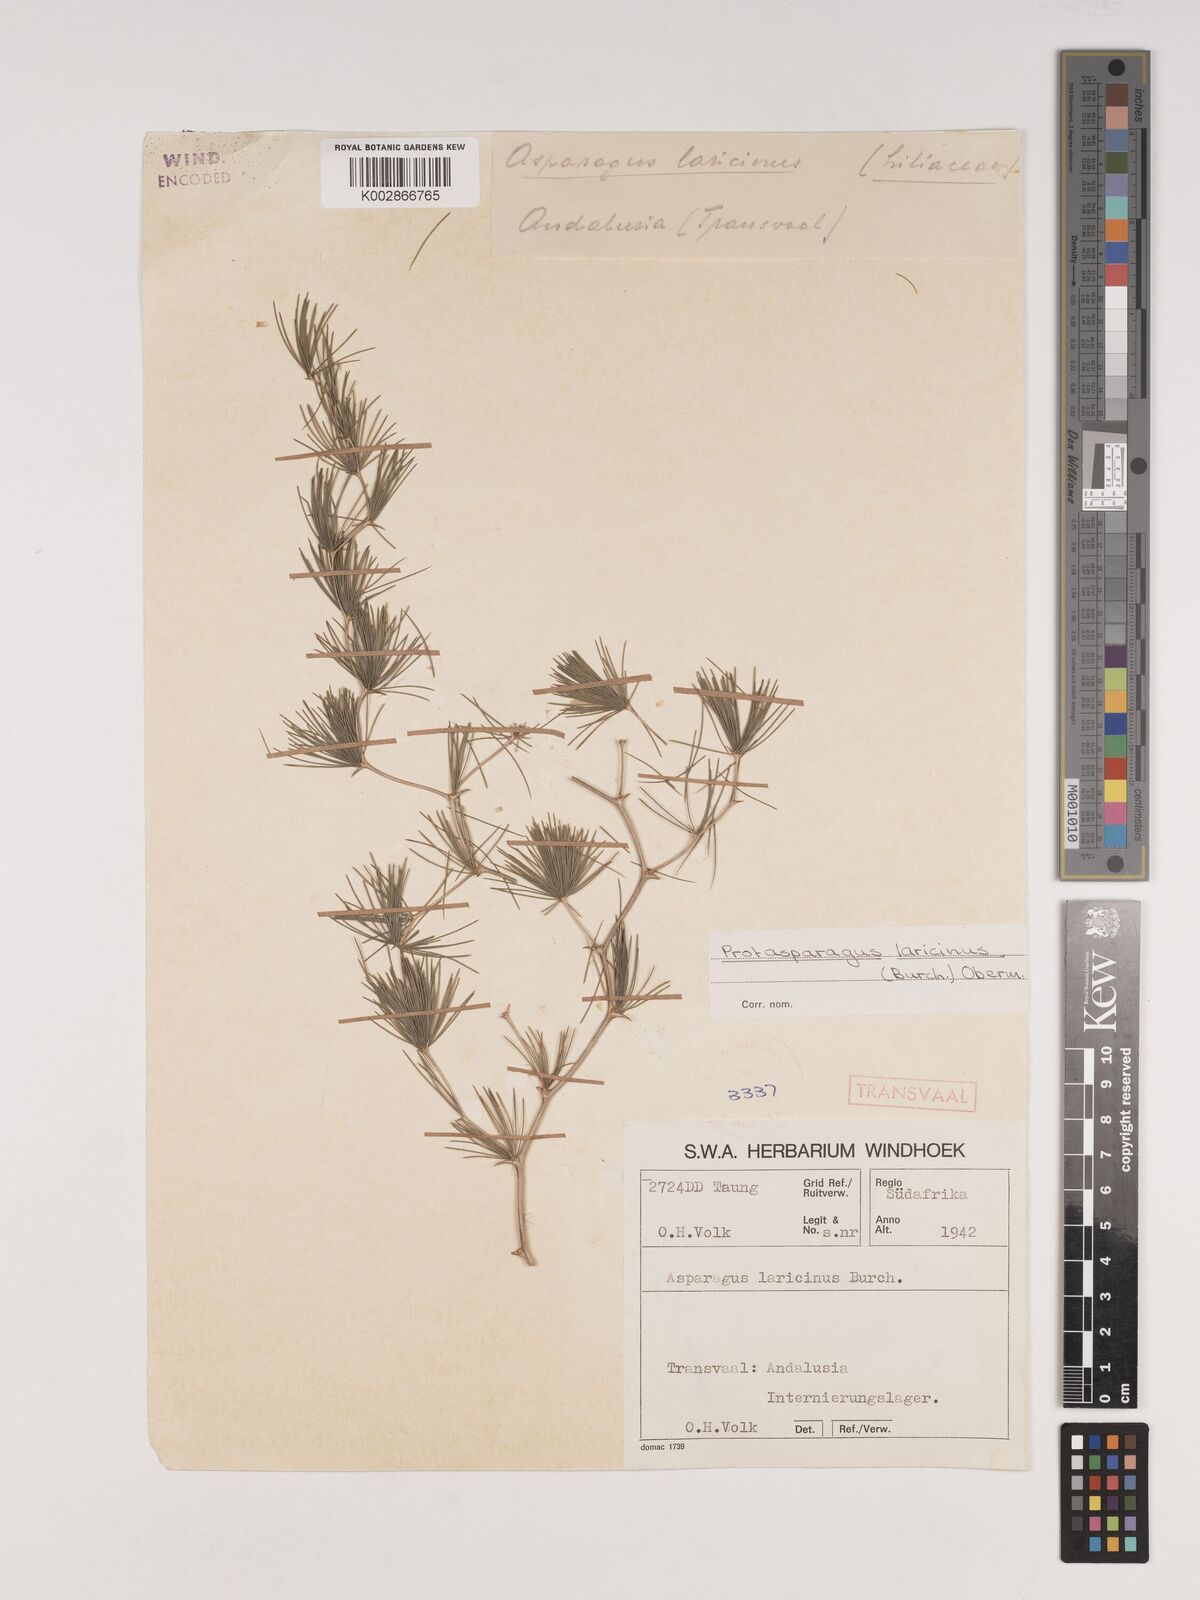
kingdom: Plantae
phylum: Tracheophyta
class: Liliopsida
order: Asparagales
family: Asparagaceae
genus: Asparagus
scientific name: Asparagus laricinus
